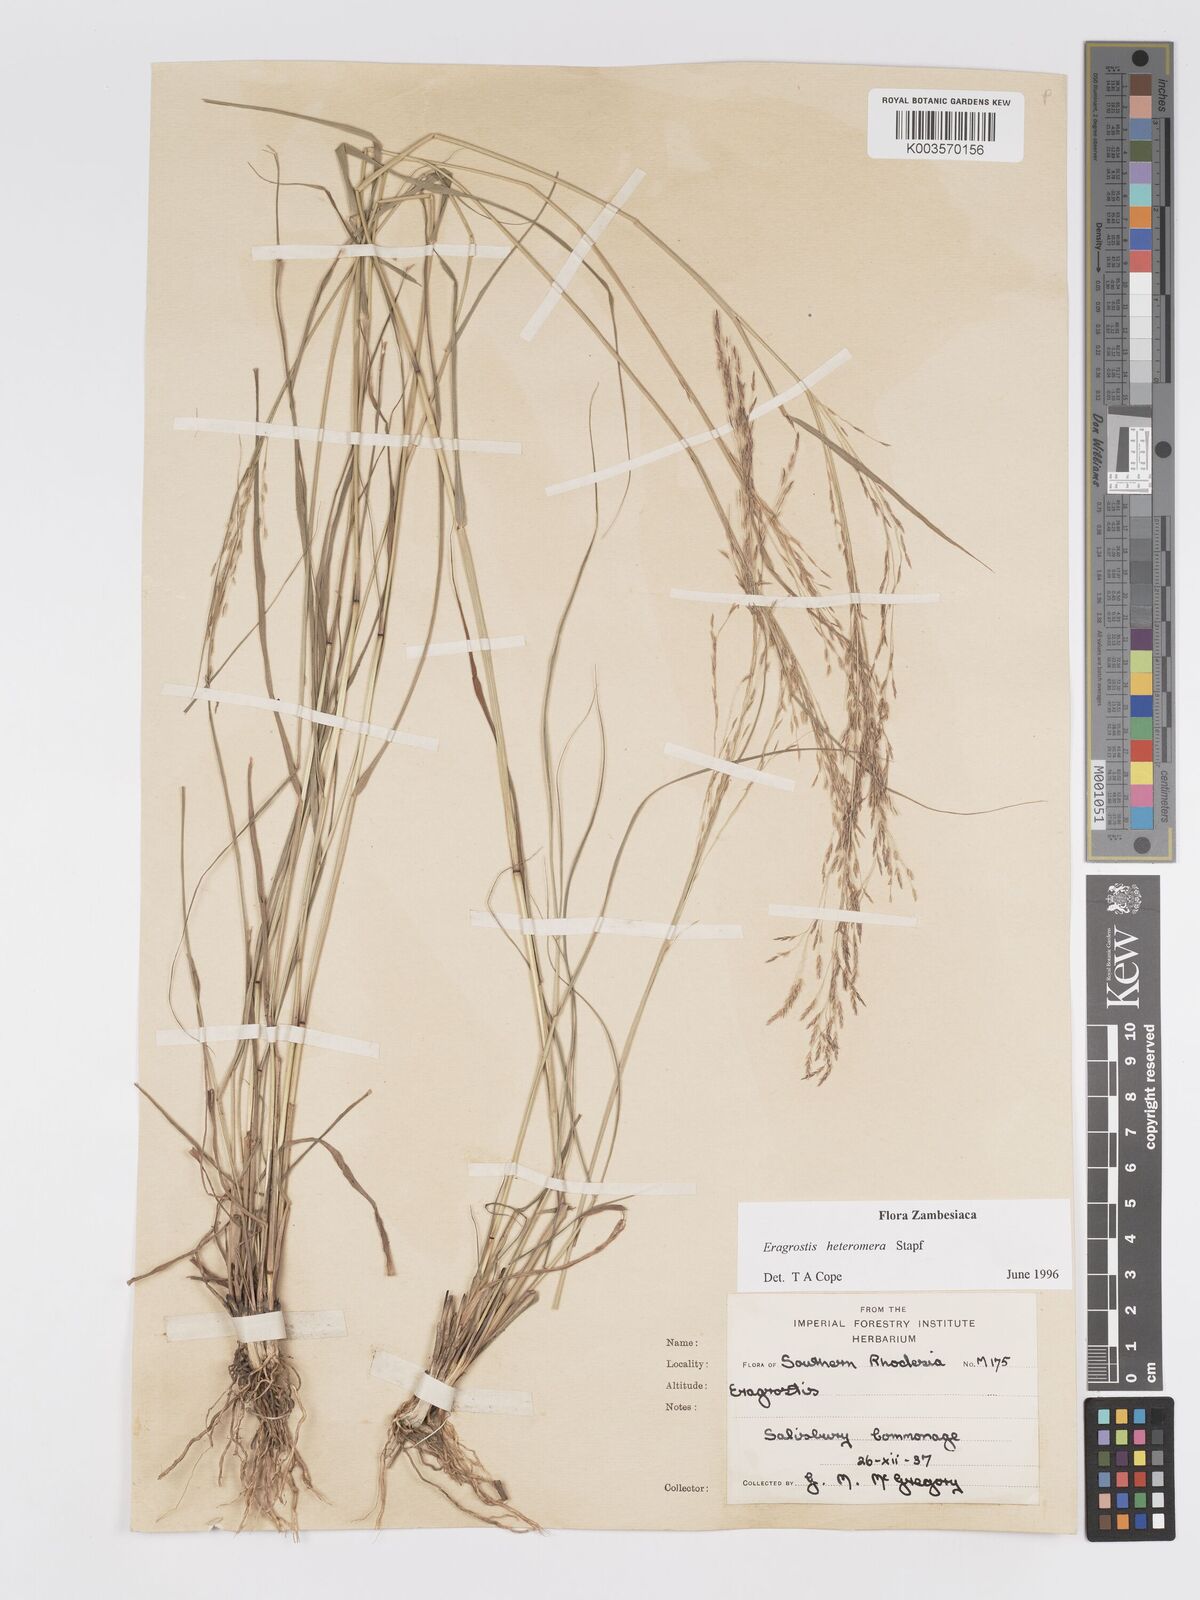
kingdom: Plantae
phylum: Tracheophyta
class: Liliopsida
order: Poales
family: Poaceae
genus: Eragrostis
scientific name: Eragrostis heteromera
